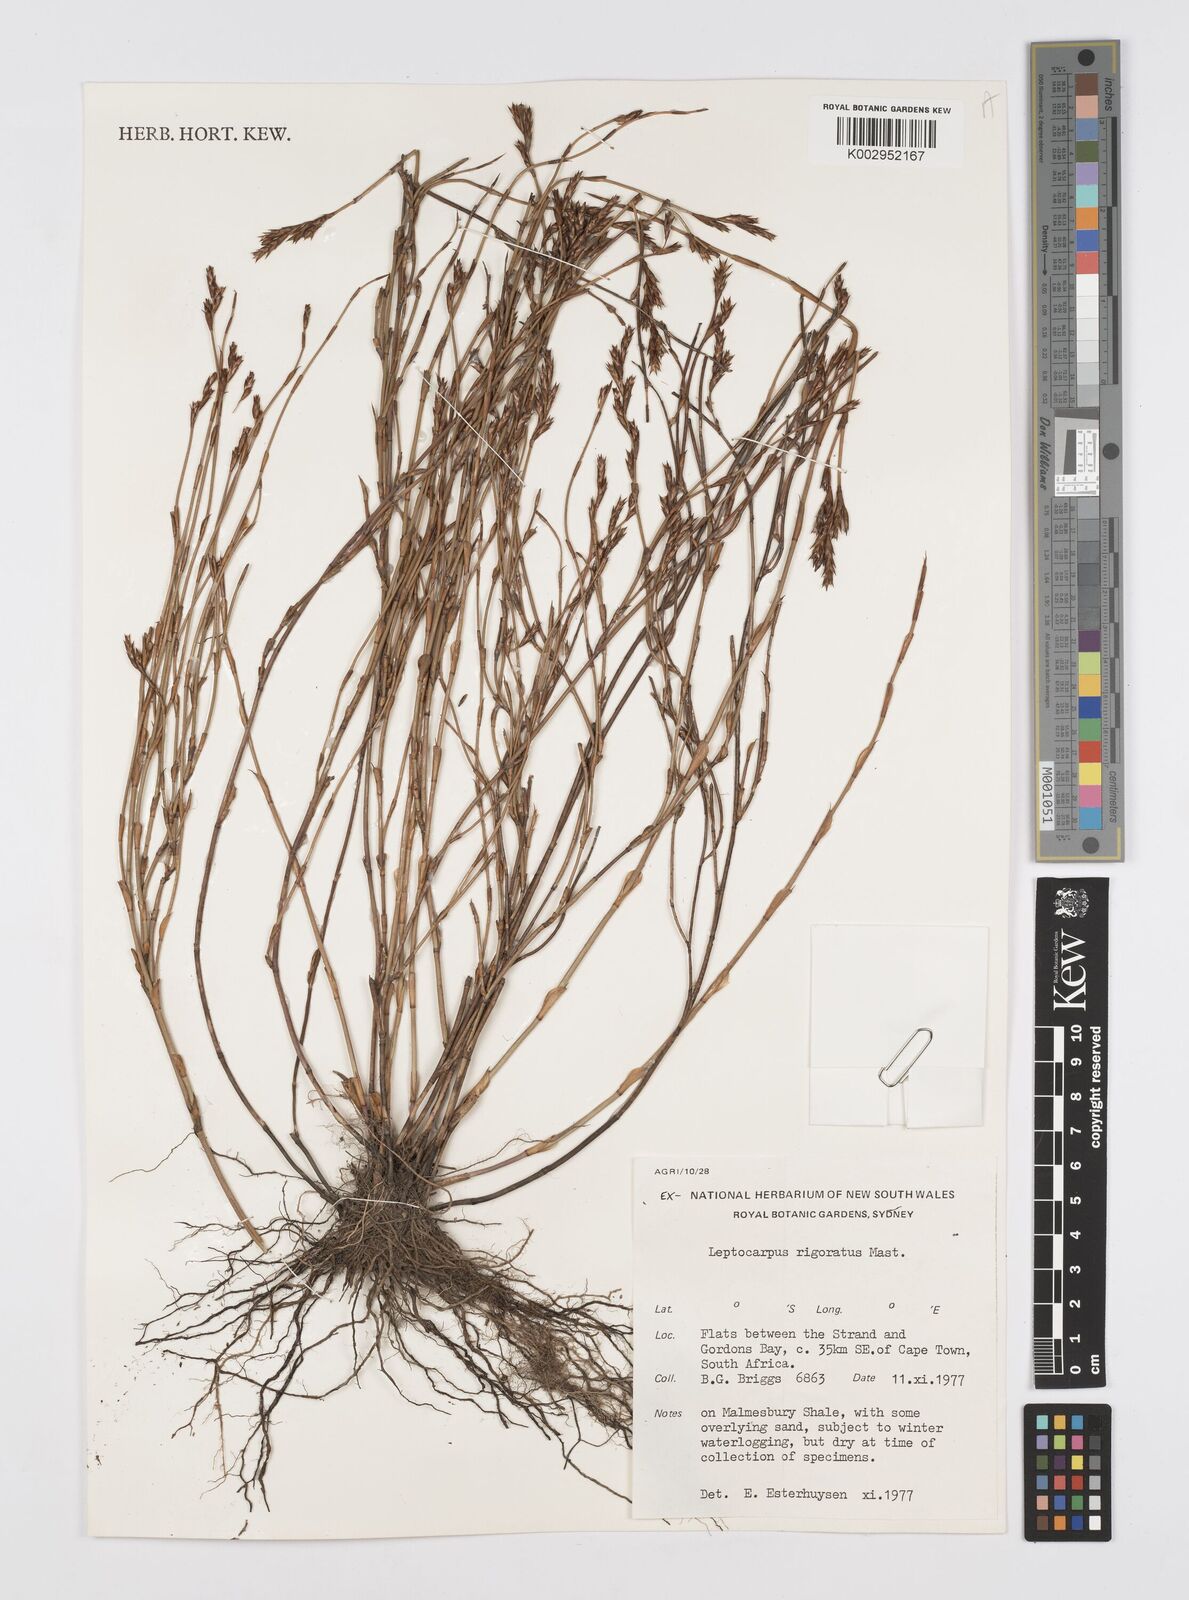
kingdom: Plantae
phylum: Tracheophyta
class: Liliopsida
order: Poales
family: Restionaceae
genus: Restio
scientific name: Restio rigoratus
